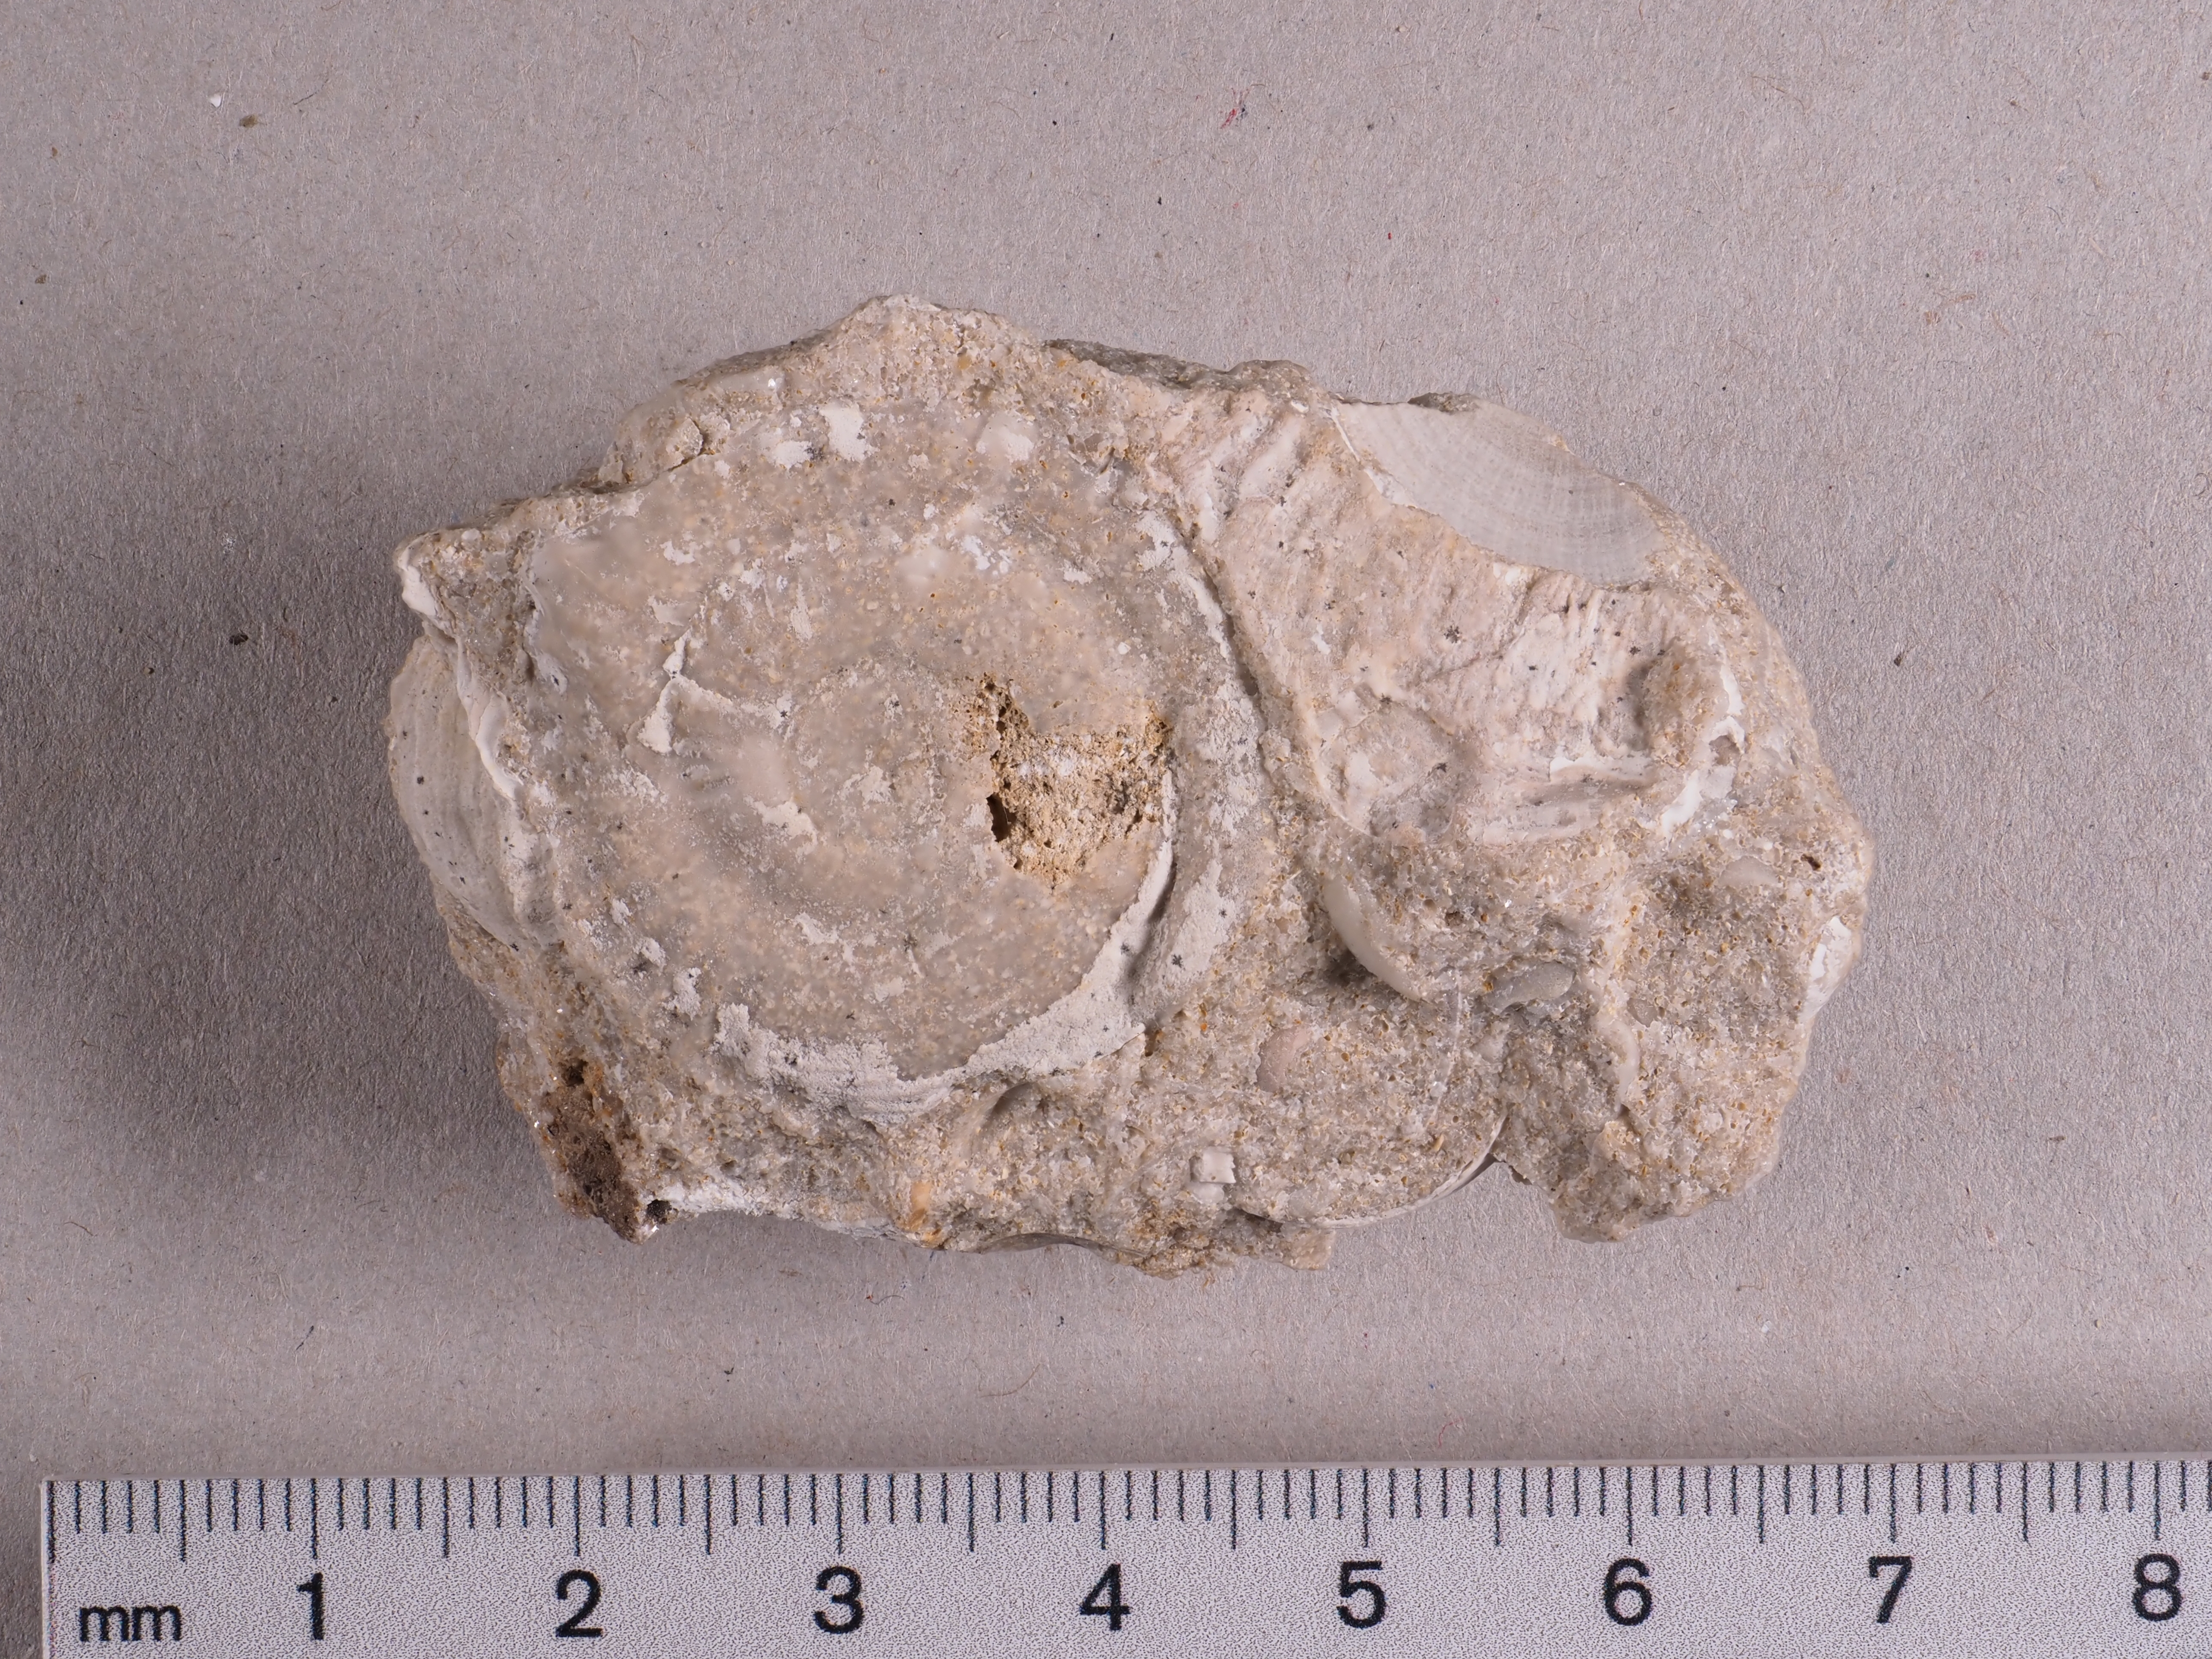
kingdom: Animalia
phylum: Mollusca
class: Bivalvia
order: Ostreida
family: Ostreidae
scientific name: Ostreidae
